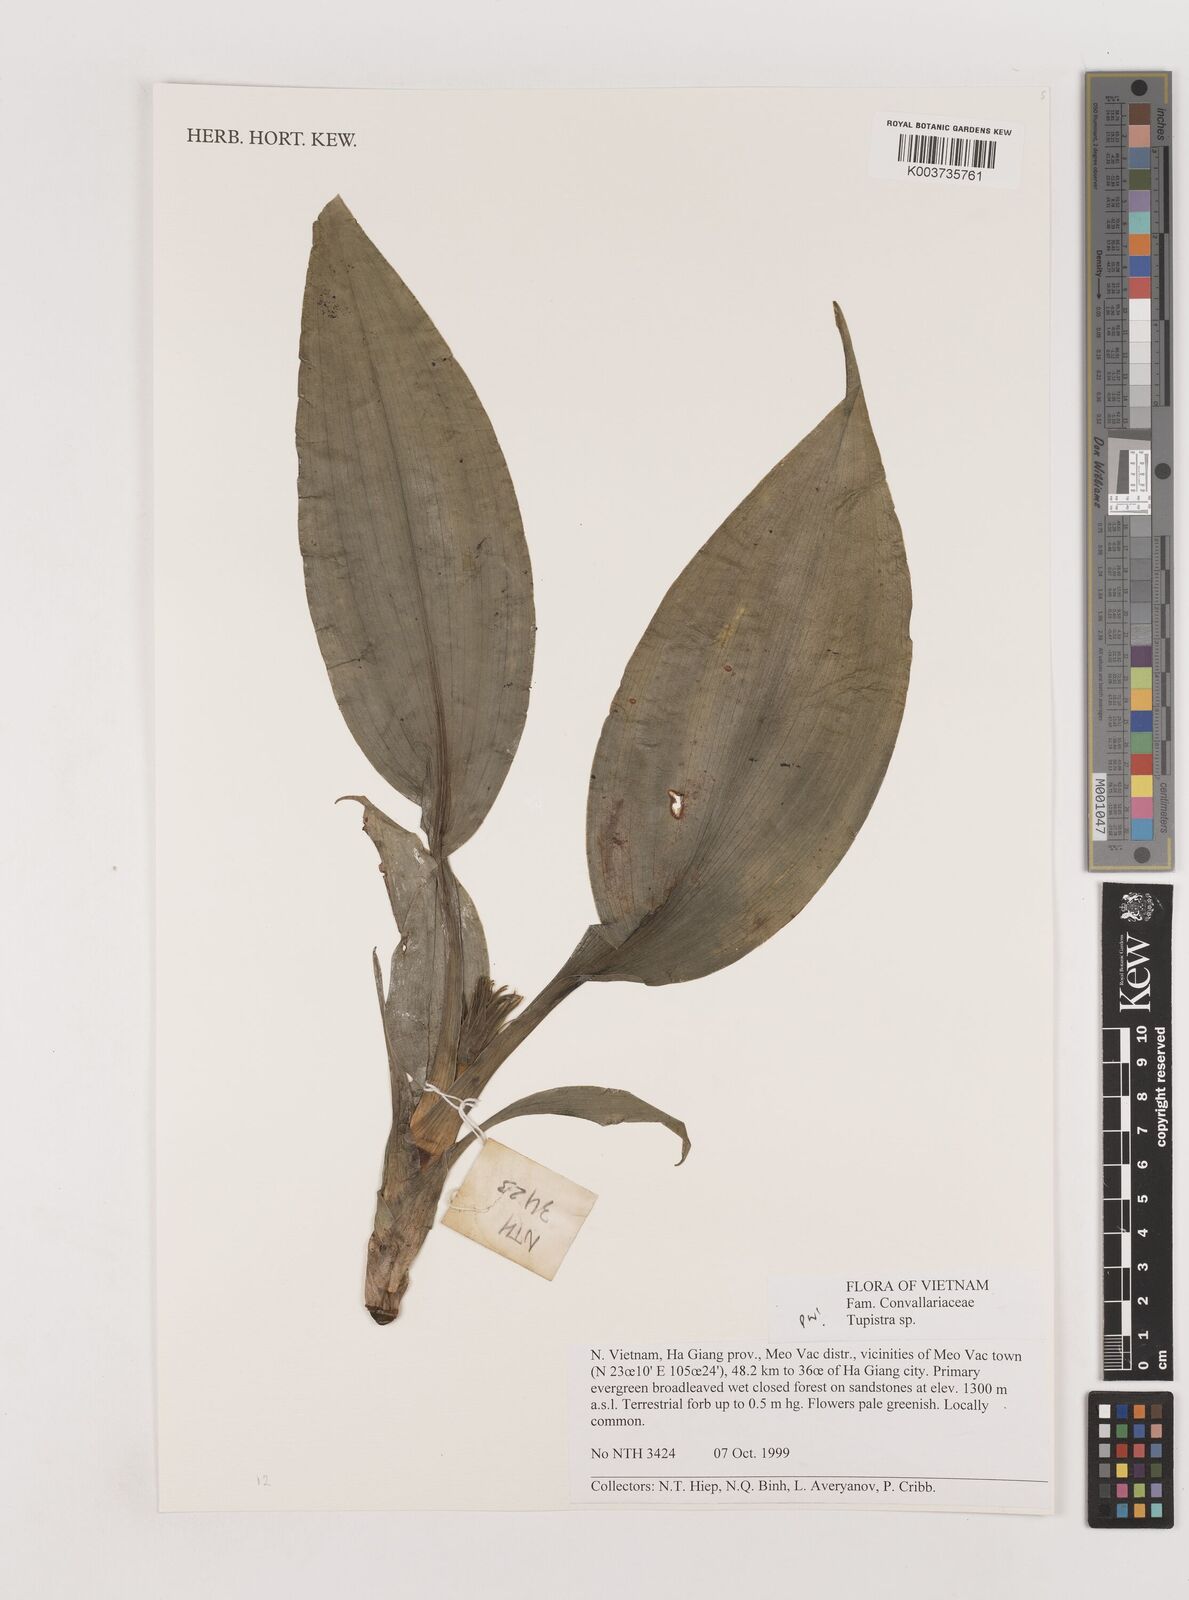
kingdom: Plantae
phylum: Tracheophyta
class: Liliopsida
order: Asparagales
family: Asparagaceae
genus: Tupistra
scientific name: Tupistra
